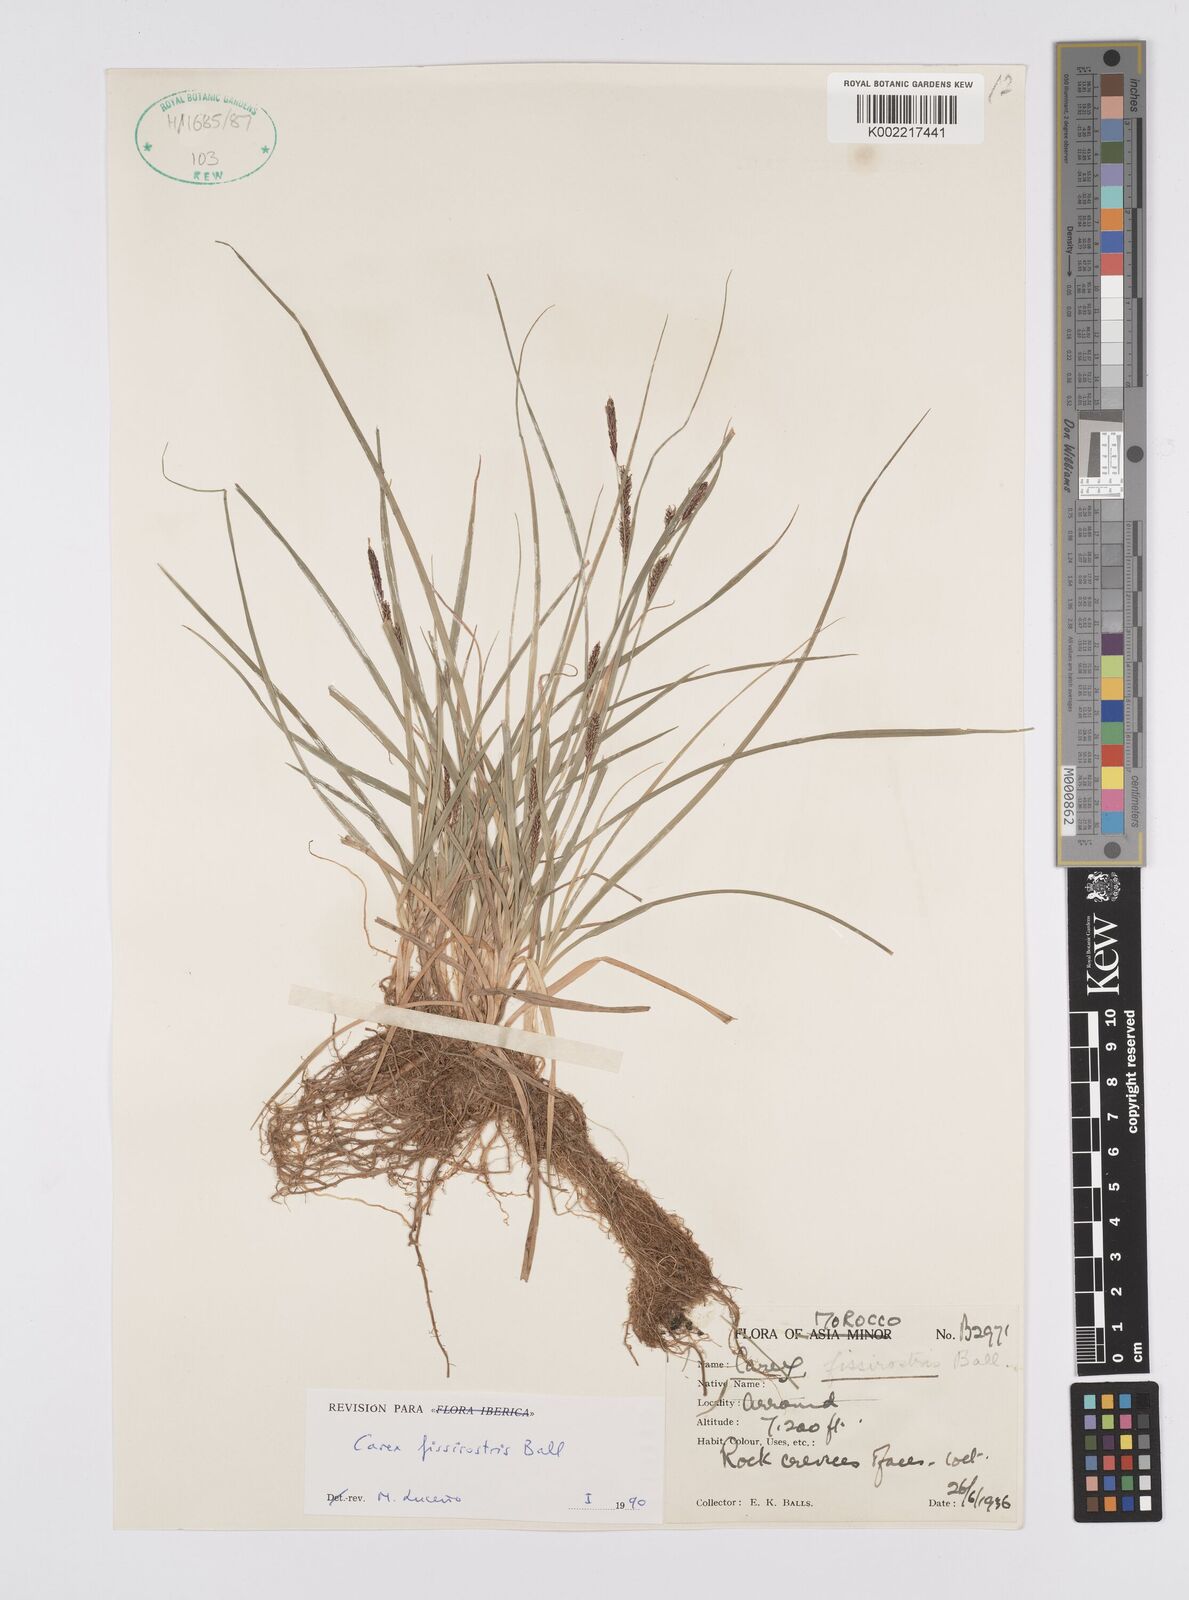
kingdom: Plantae
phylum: Tracheophyta
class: Liliopsida
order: Poales
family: Cyperaceae
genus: Carex
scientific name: Carex diluta
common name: Sedge
